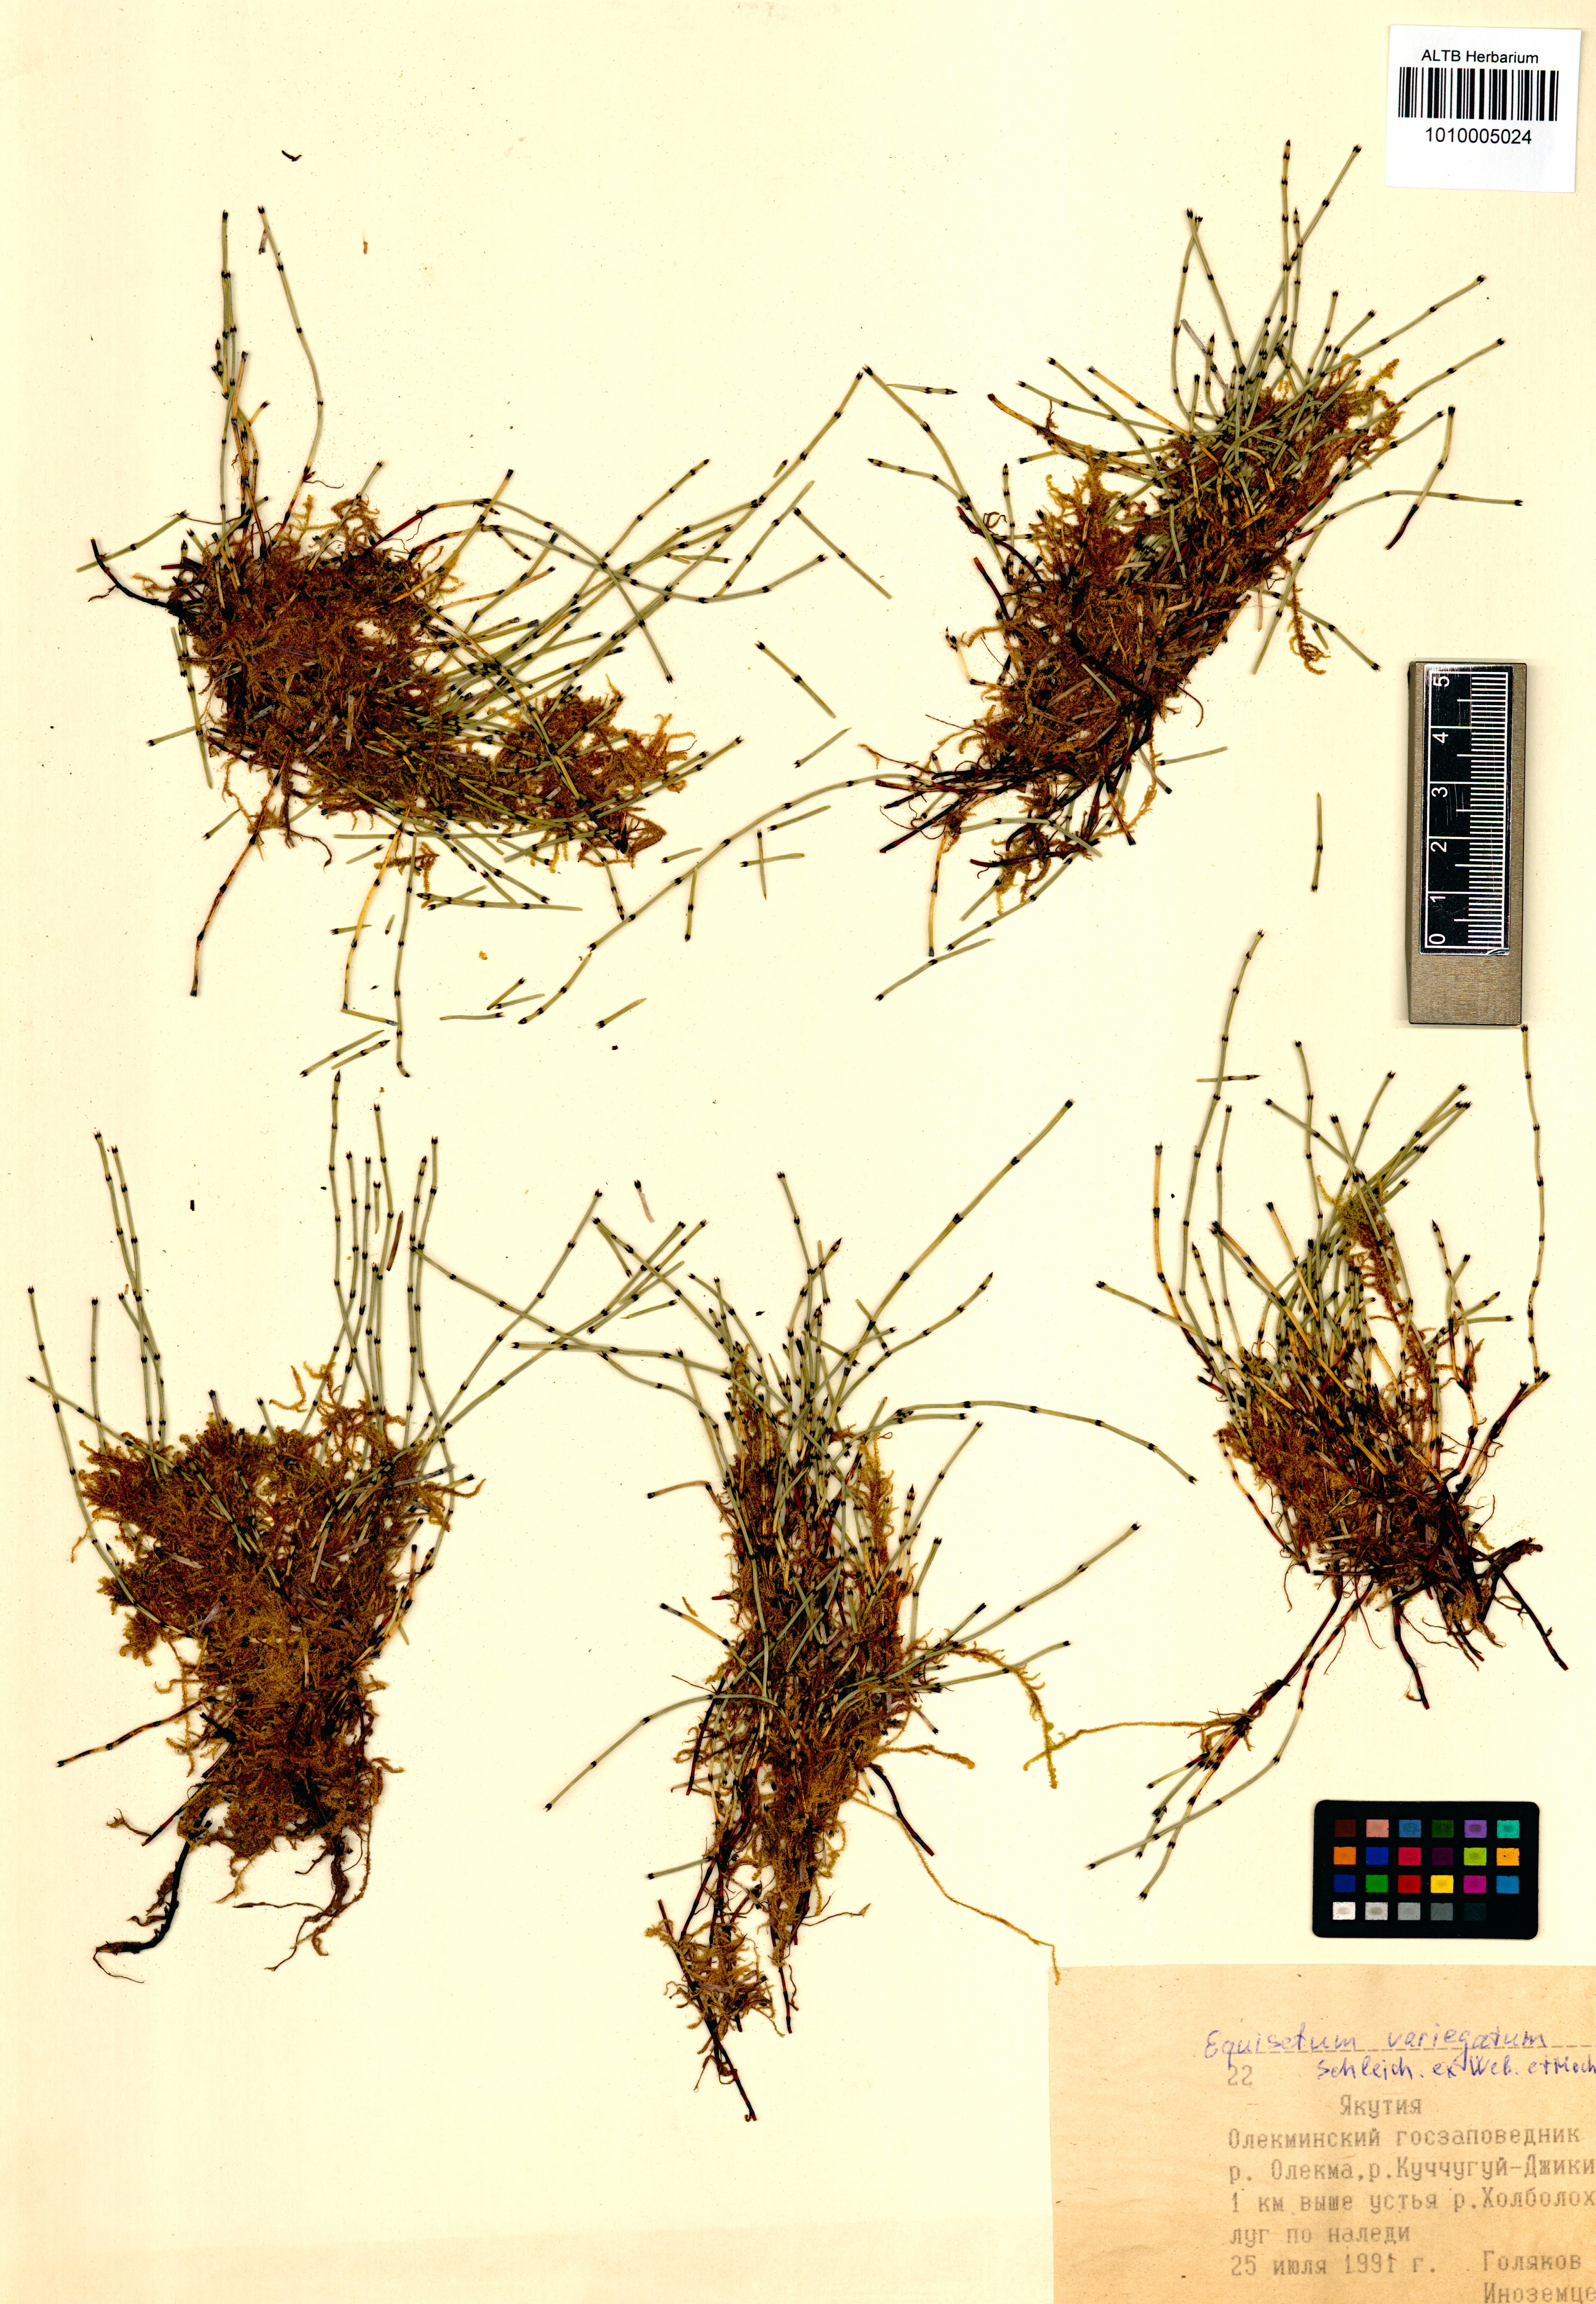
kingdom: Plantae
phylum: Tracheophyta
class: Polypodiopsida
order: Equisetales
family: Equisetaceae
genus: Equisetum
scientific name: Equisetum variegatum
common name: Variegated horsetail
